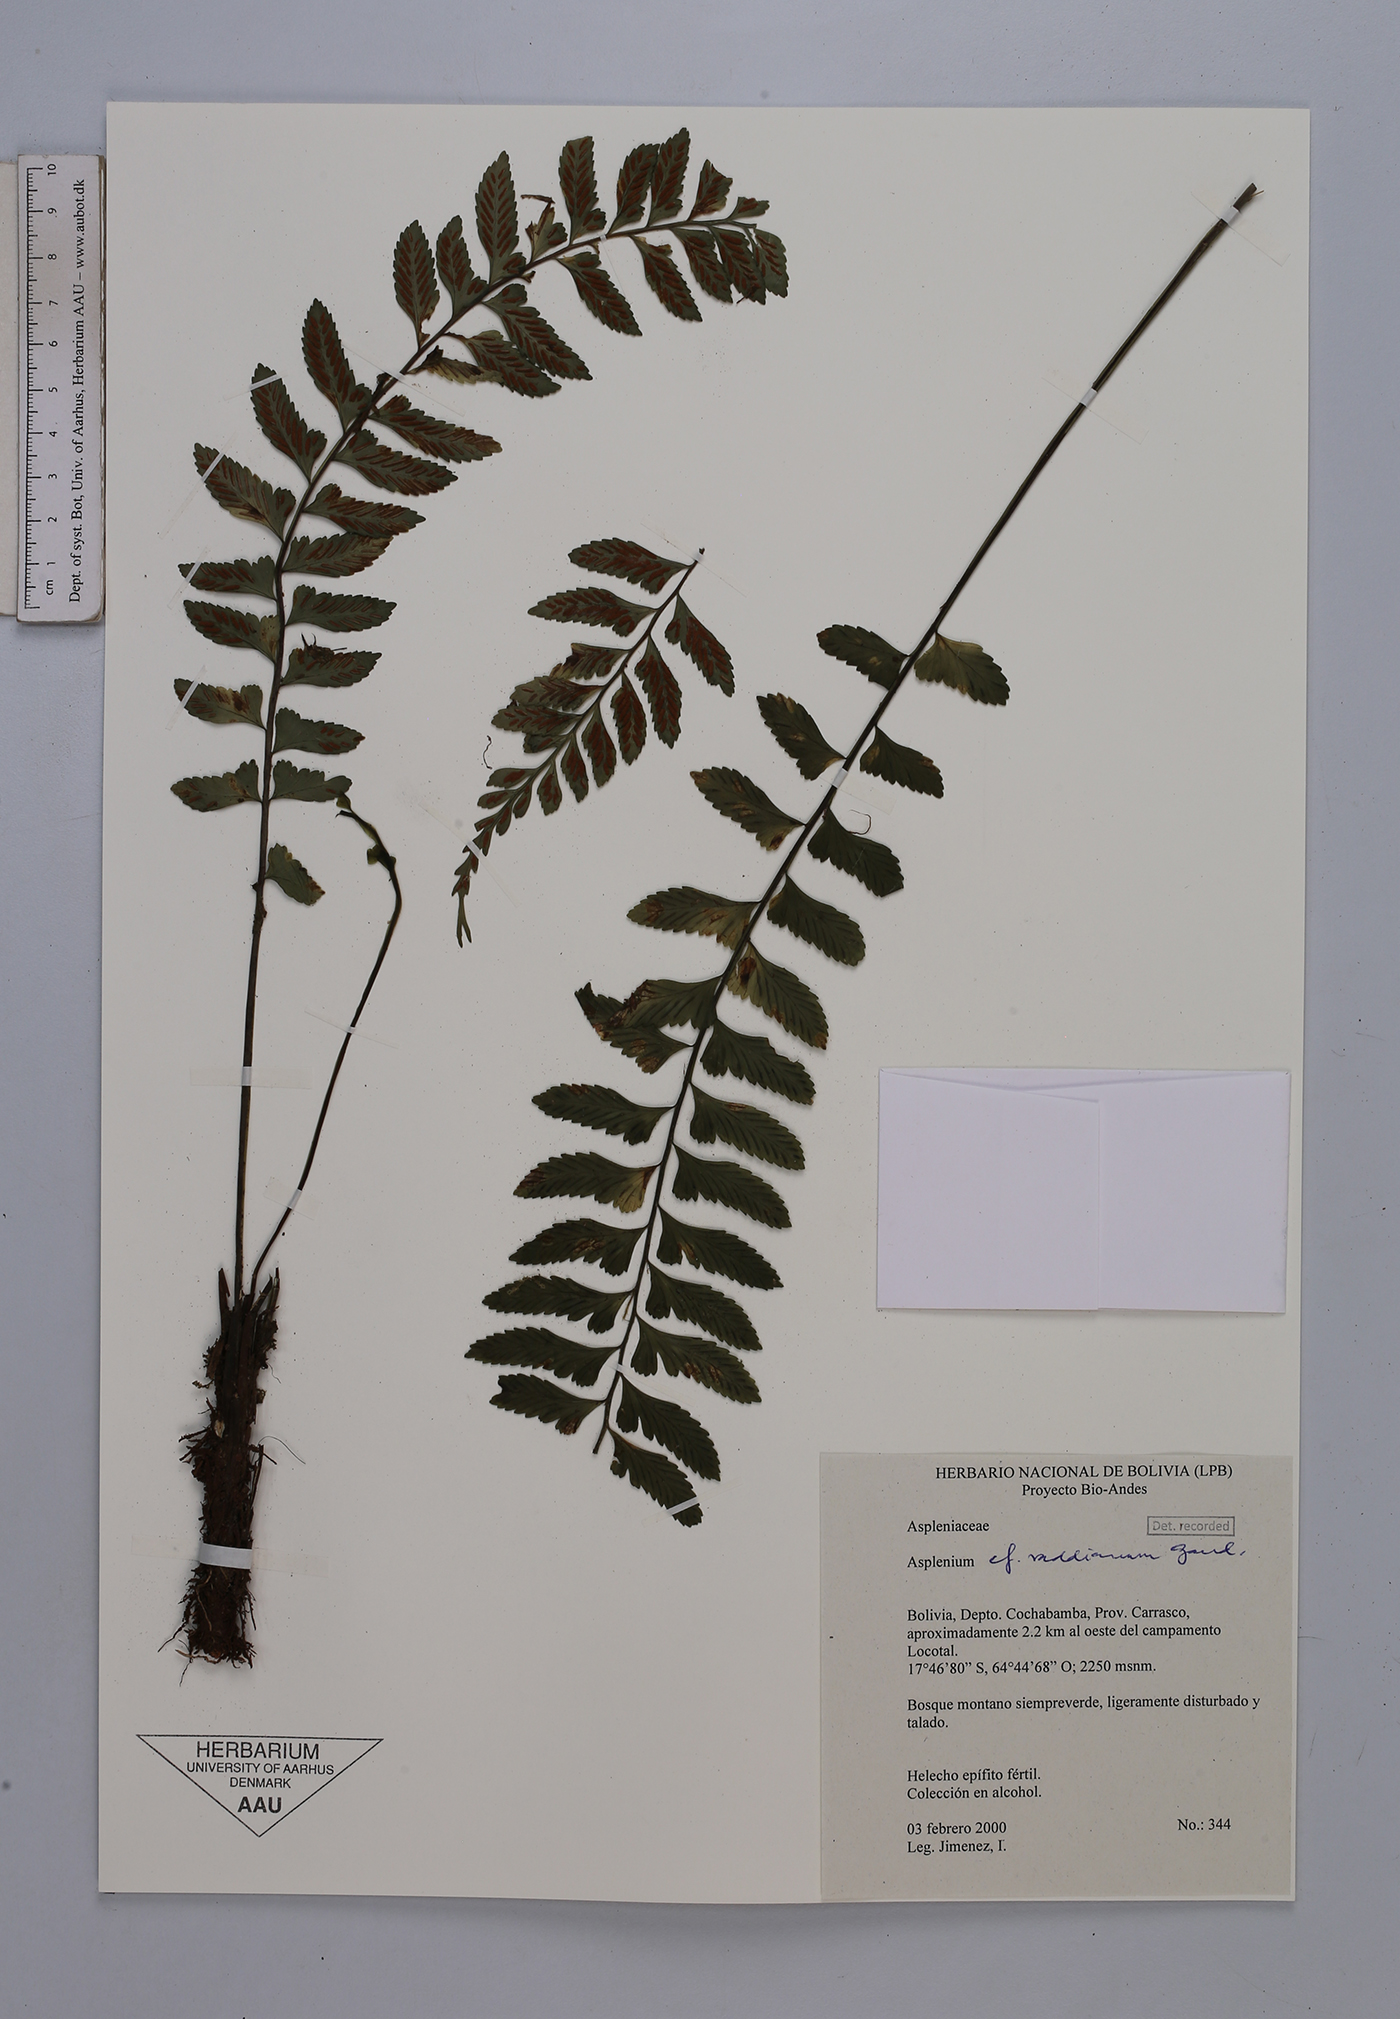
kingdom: Plantae
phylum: Tracheophyta
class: Polypodiopsida
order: Polypodiales
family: Aspleniaceae
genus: Asplenium
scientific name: Asplenium raddianum
